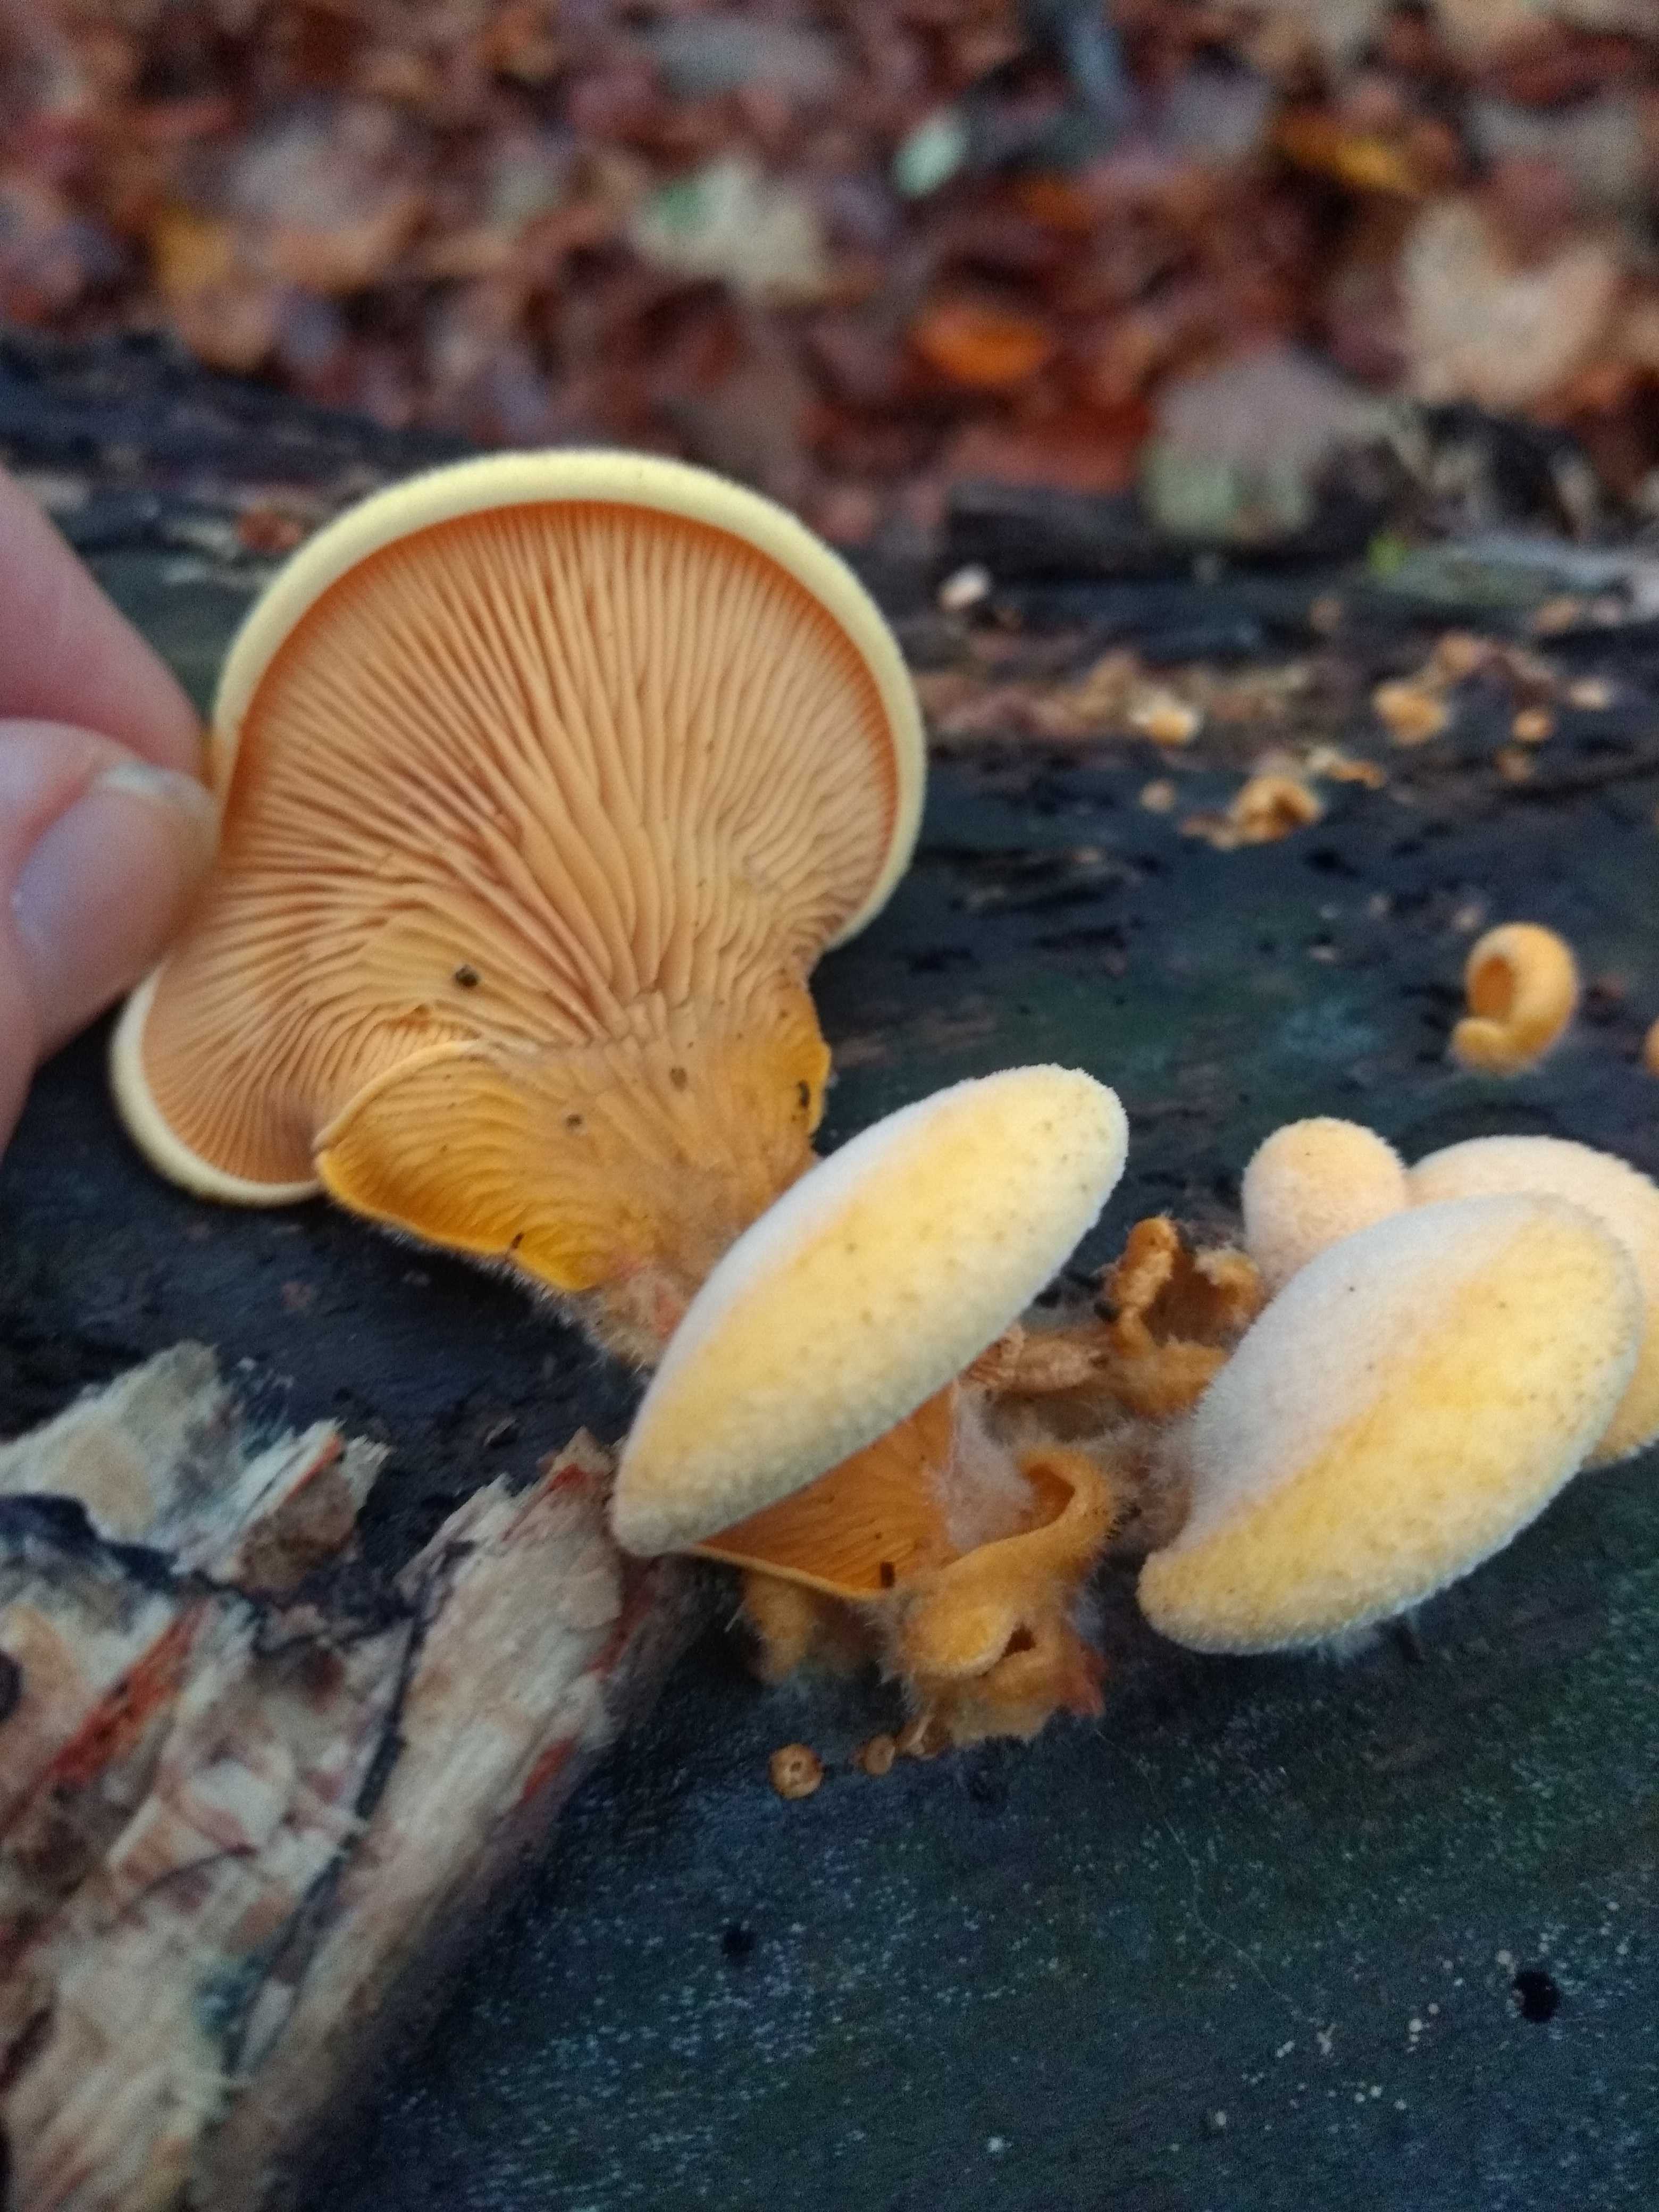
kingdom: Fungi
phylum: Basidiomycota
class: Agaricomycetes
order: Agaricales
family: Phyllotopsidaceae
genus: Phyllotopsis
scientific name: Phyllotopsis nidulans
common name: okkerblad
